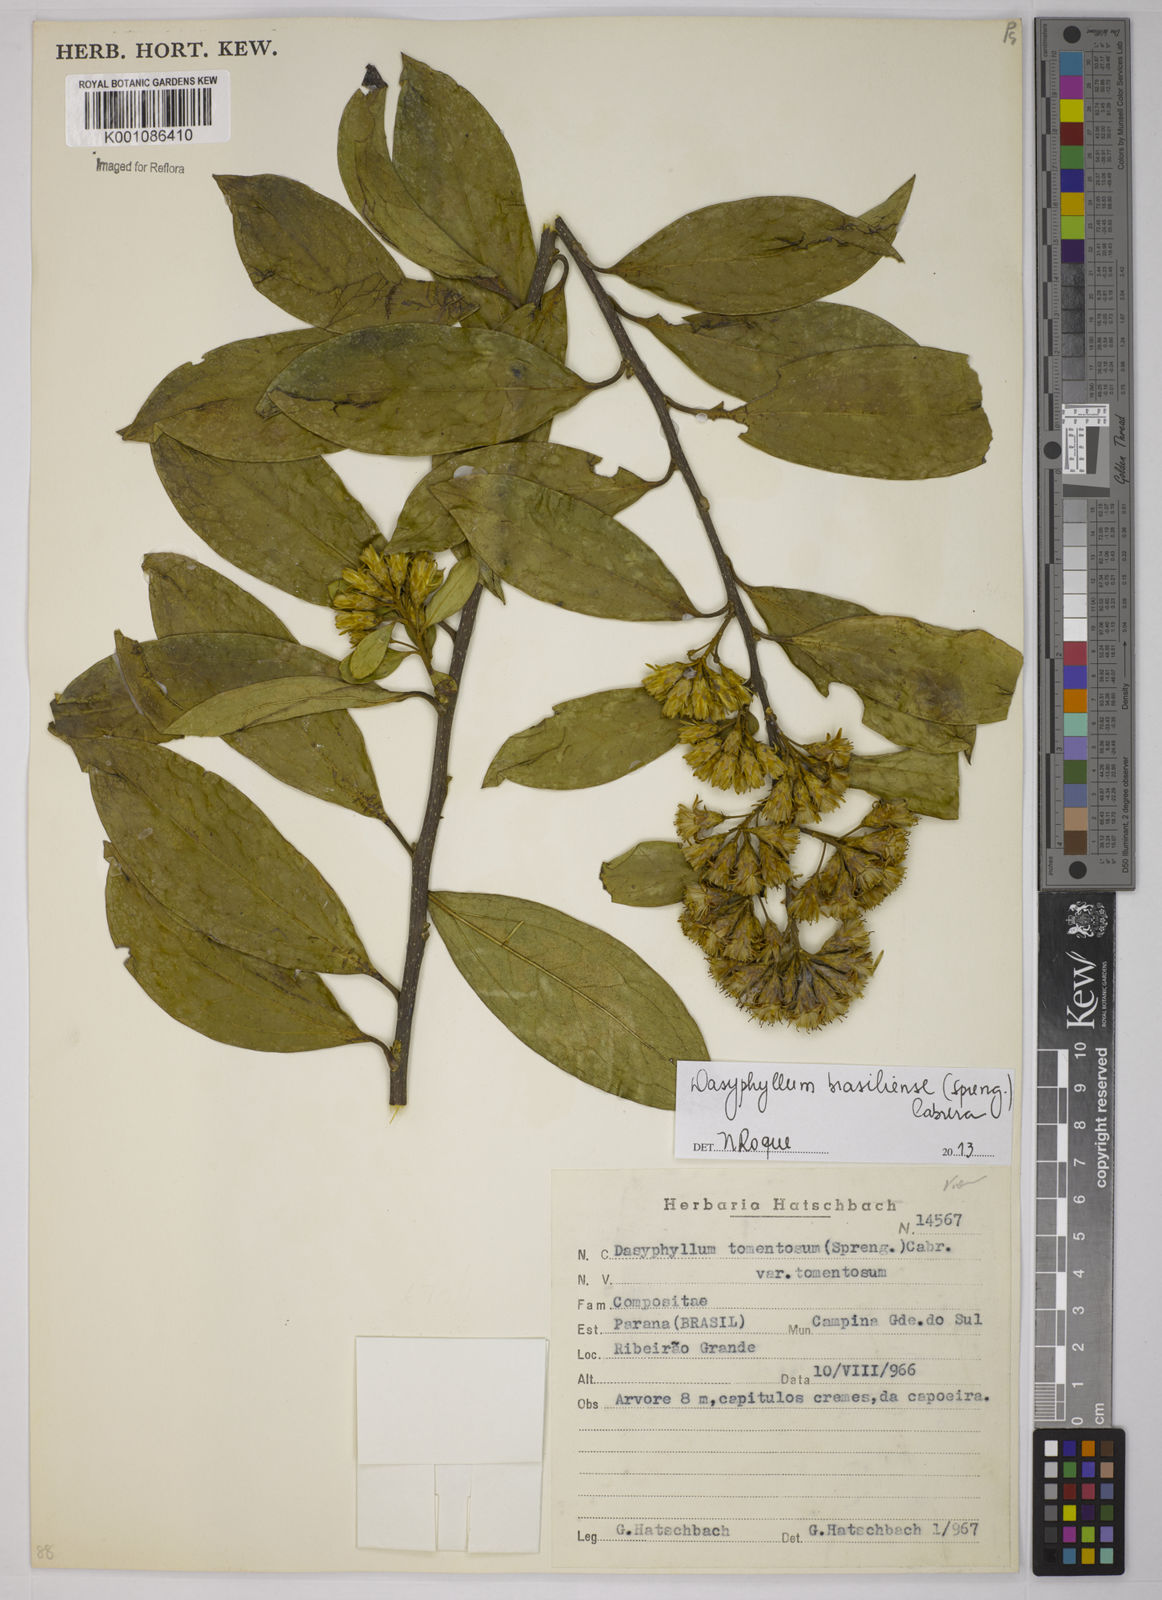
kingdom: Plantae
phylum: Tracheophyta
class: Magnoliopsida
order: Asterales
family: Asteraceae
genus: Dasyphyllum
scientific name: Dasyphyllum brasiliense
